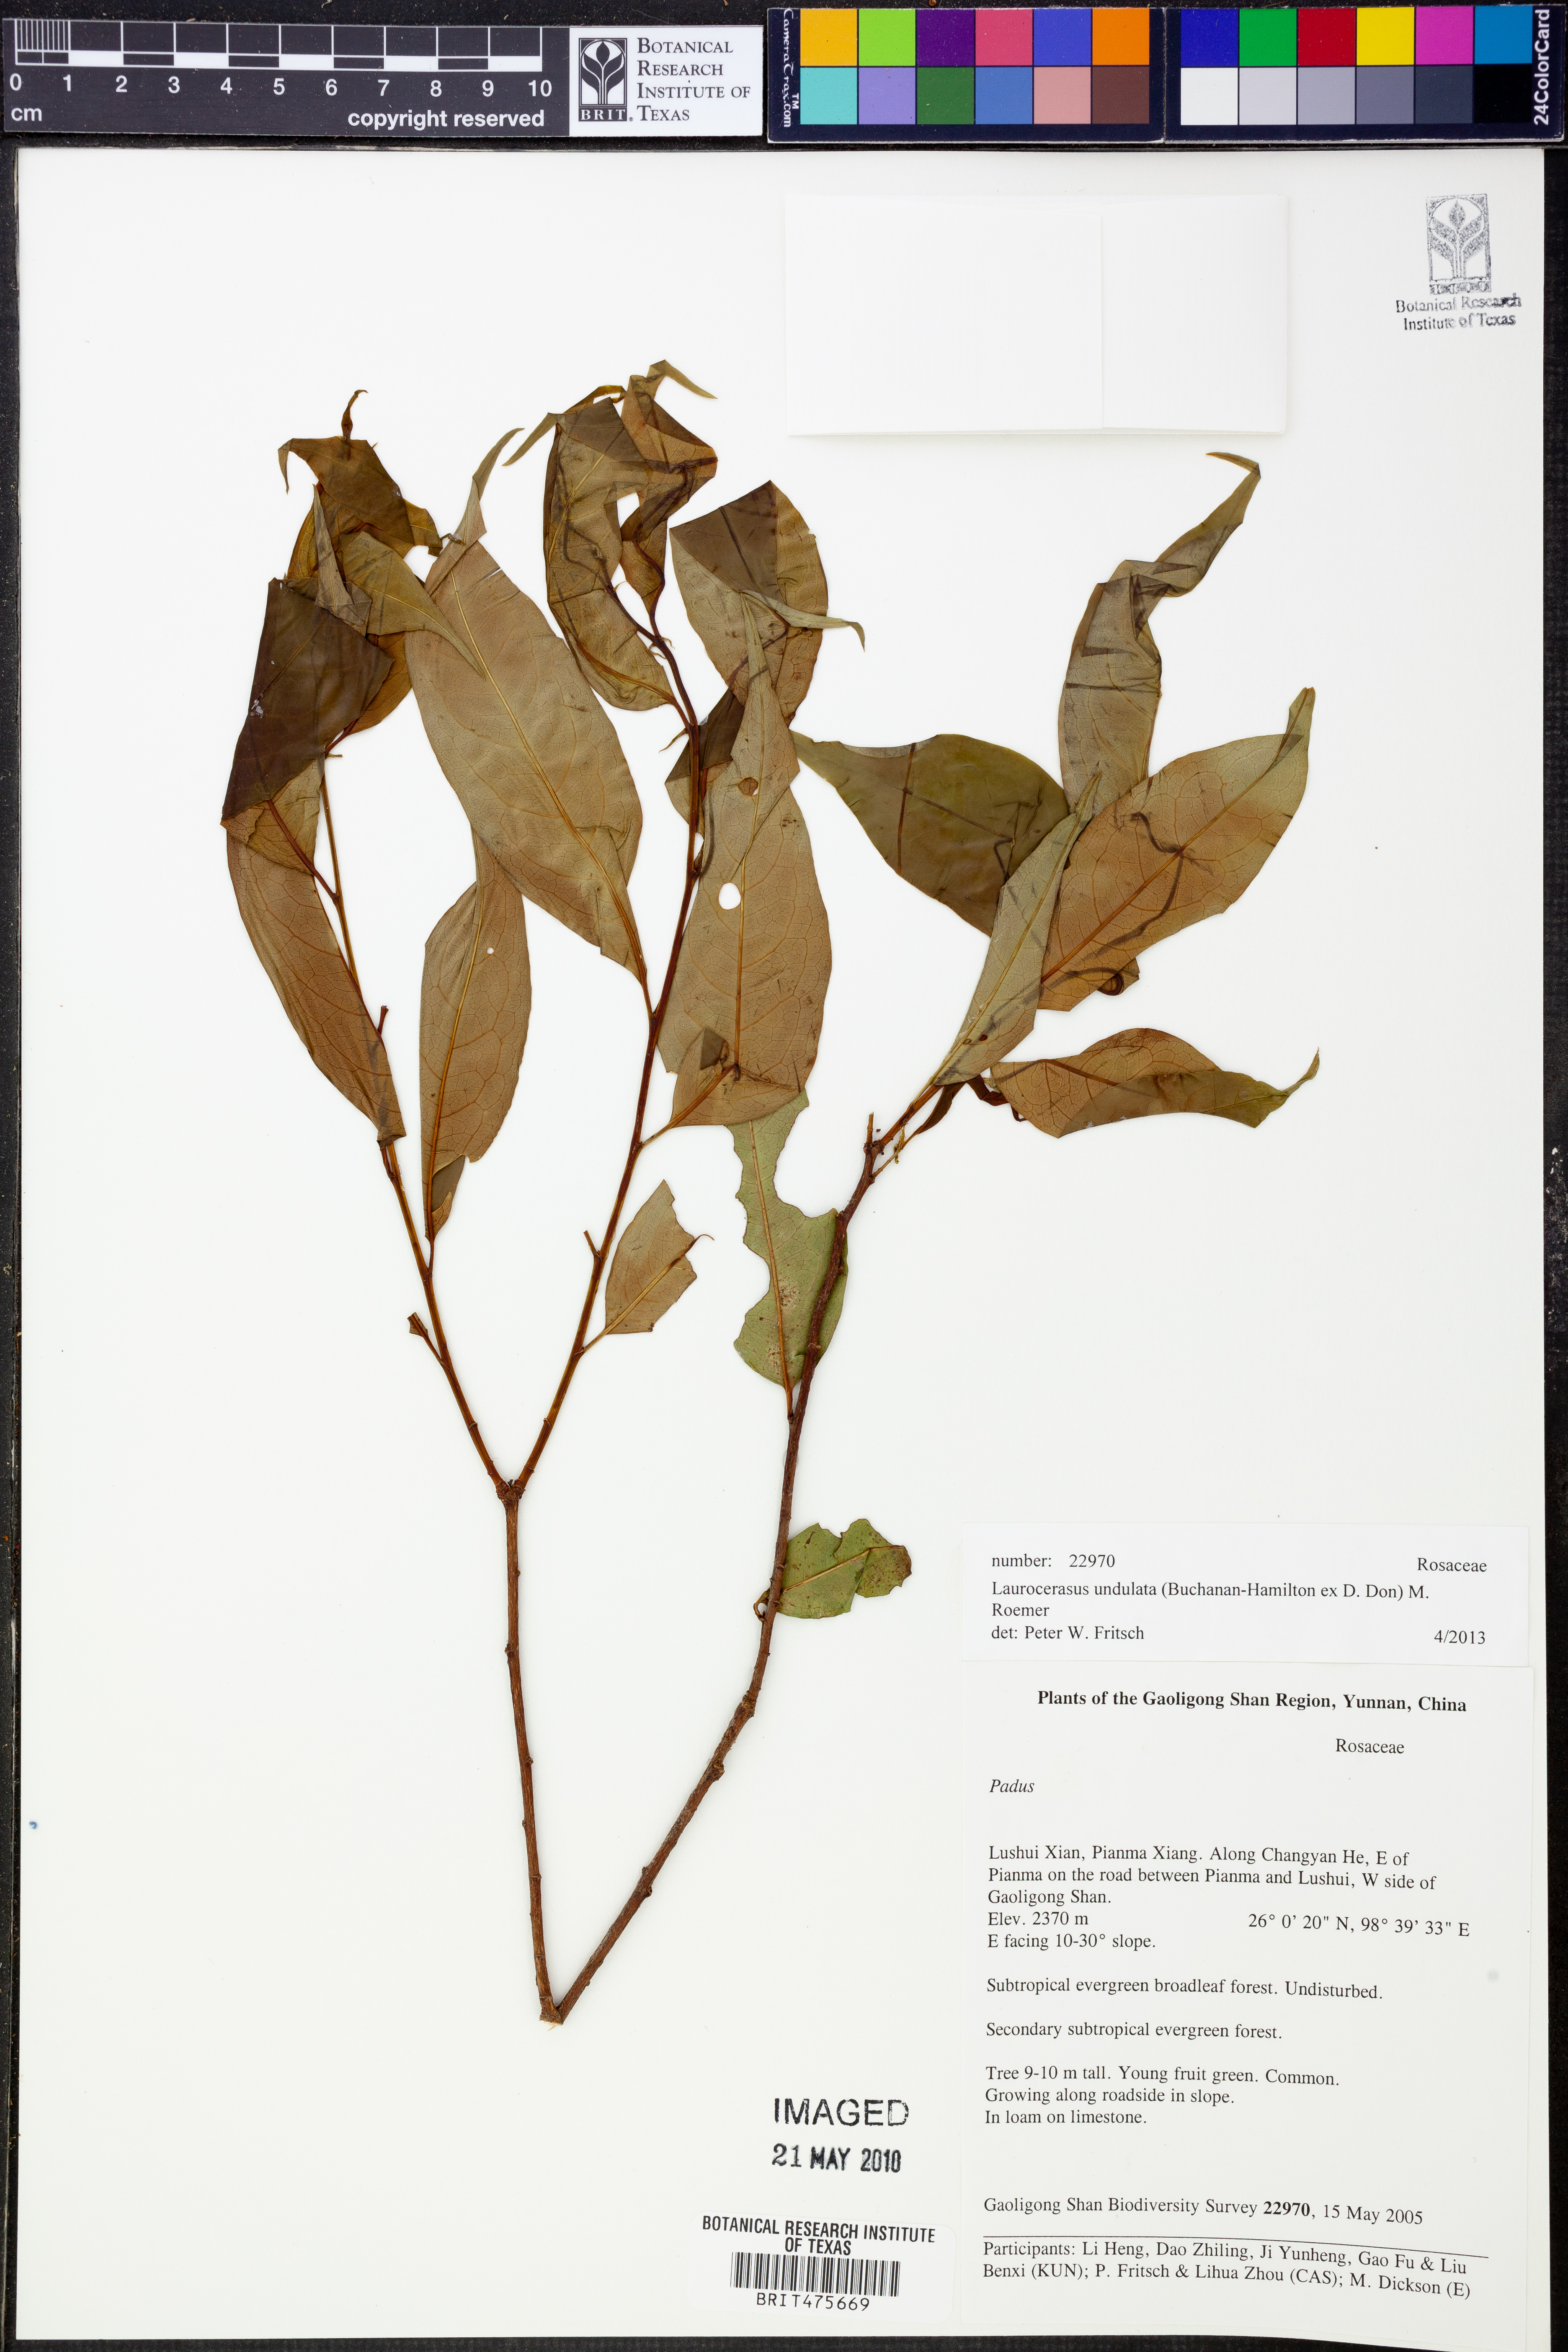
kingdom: Plantae
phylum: Tracheophyta
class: Magnoliopsida
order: Rosales
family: Rosaceae
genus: Prunus
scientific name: Prunus undulata
